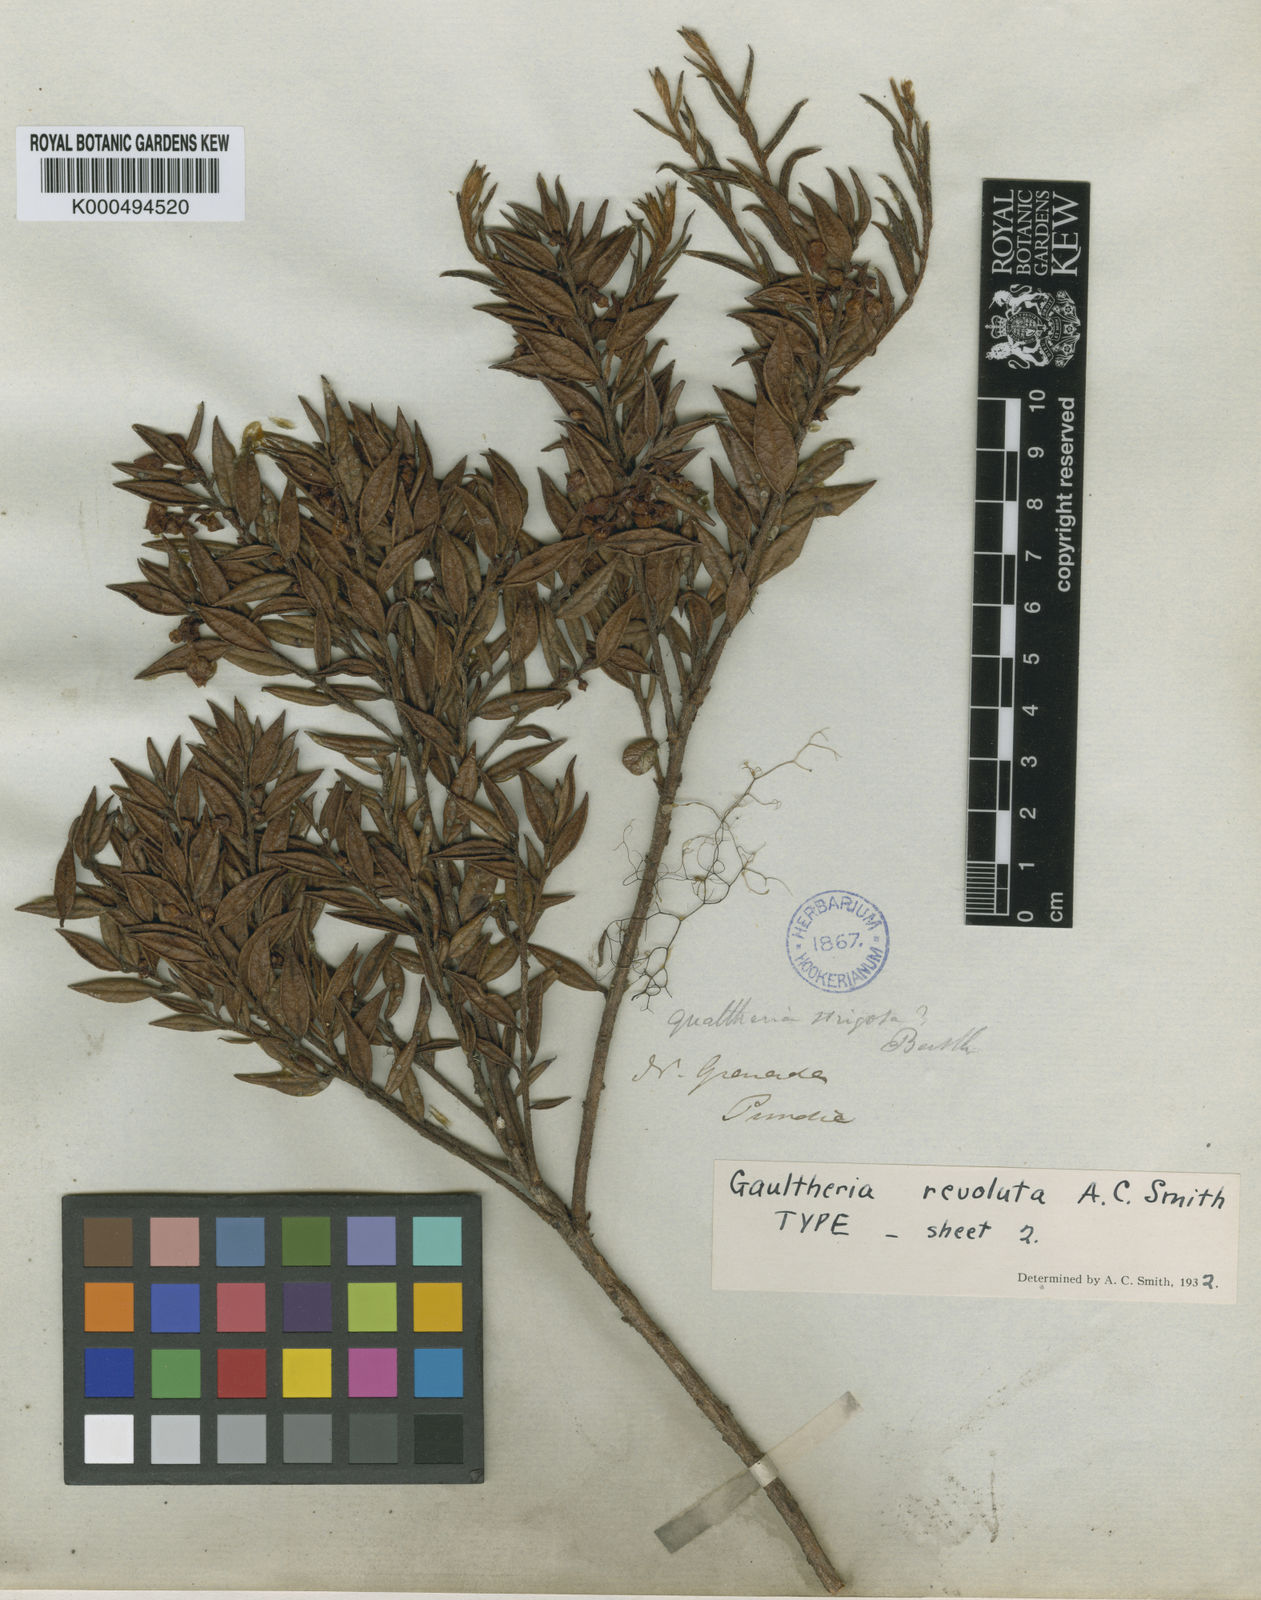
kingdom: Plantae
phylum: Tracheophyta
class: Magnoliopsida
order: Ericales
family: Ericaceae
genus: Gaultheria
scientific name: Gaultheria strigosa
